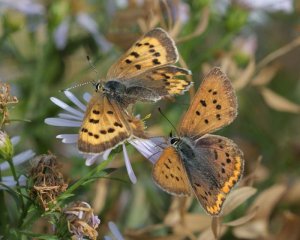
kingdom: Animalia
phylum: Arthropoda
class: Insecta
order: Lepidoptera
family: Sesiidae
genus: Sesia
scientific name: Sesia Lycaena helloides
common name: Purplish Copper
